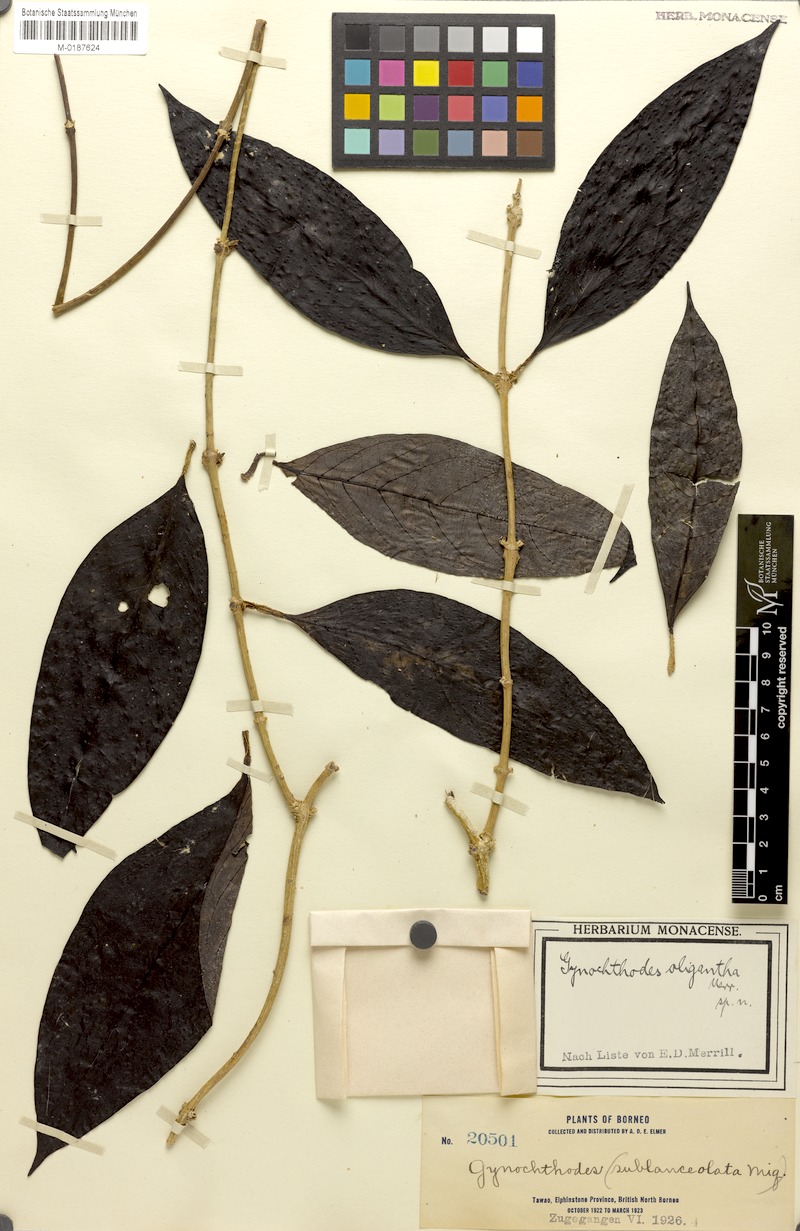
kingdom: Plantae
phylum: Tracheophyta
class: Magnoliopsida
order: Gentianales
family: Rubiaceae
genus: Gynochthodes
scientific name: Gynochthodes oligantha
